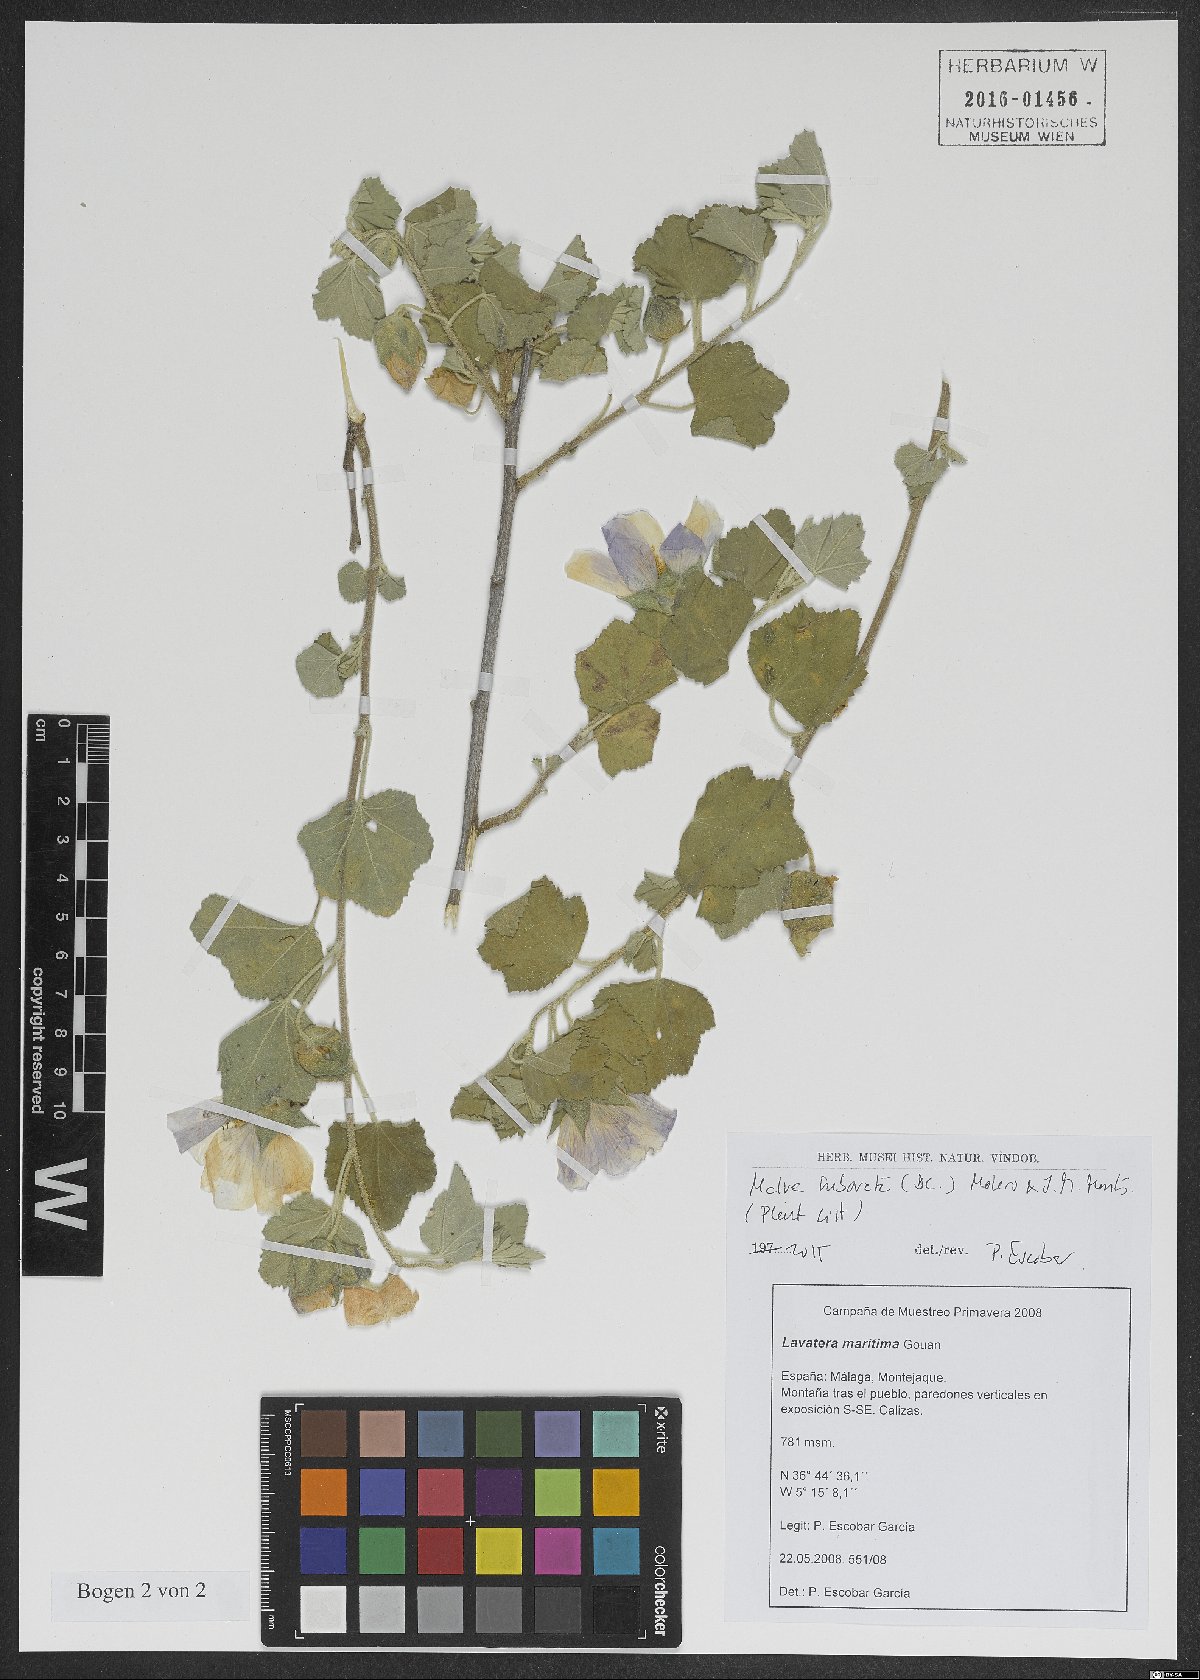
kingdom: Plantae
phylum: Tracheophyta
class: Magnoliopsida
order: Malvales
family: Malvaceae
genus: Malva
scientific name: Malva subovata
